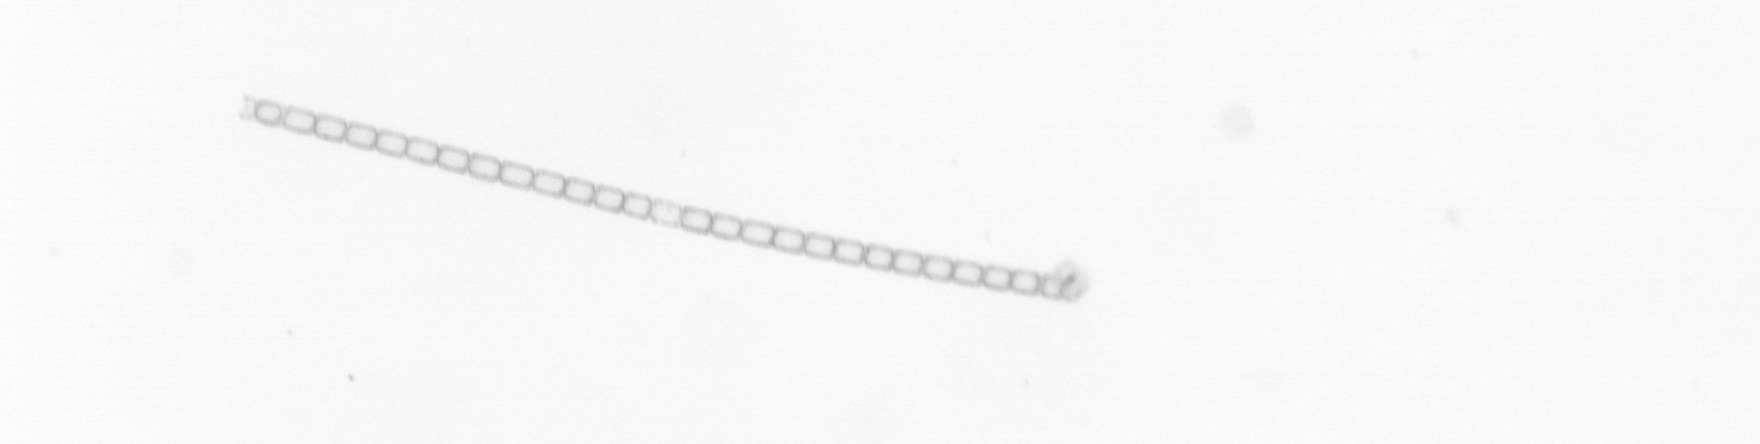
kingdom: Chromista
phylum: Ochrophyta
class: Bacillariophyceae
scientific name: Bacillariophyceae
